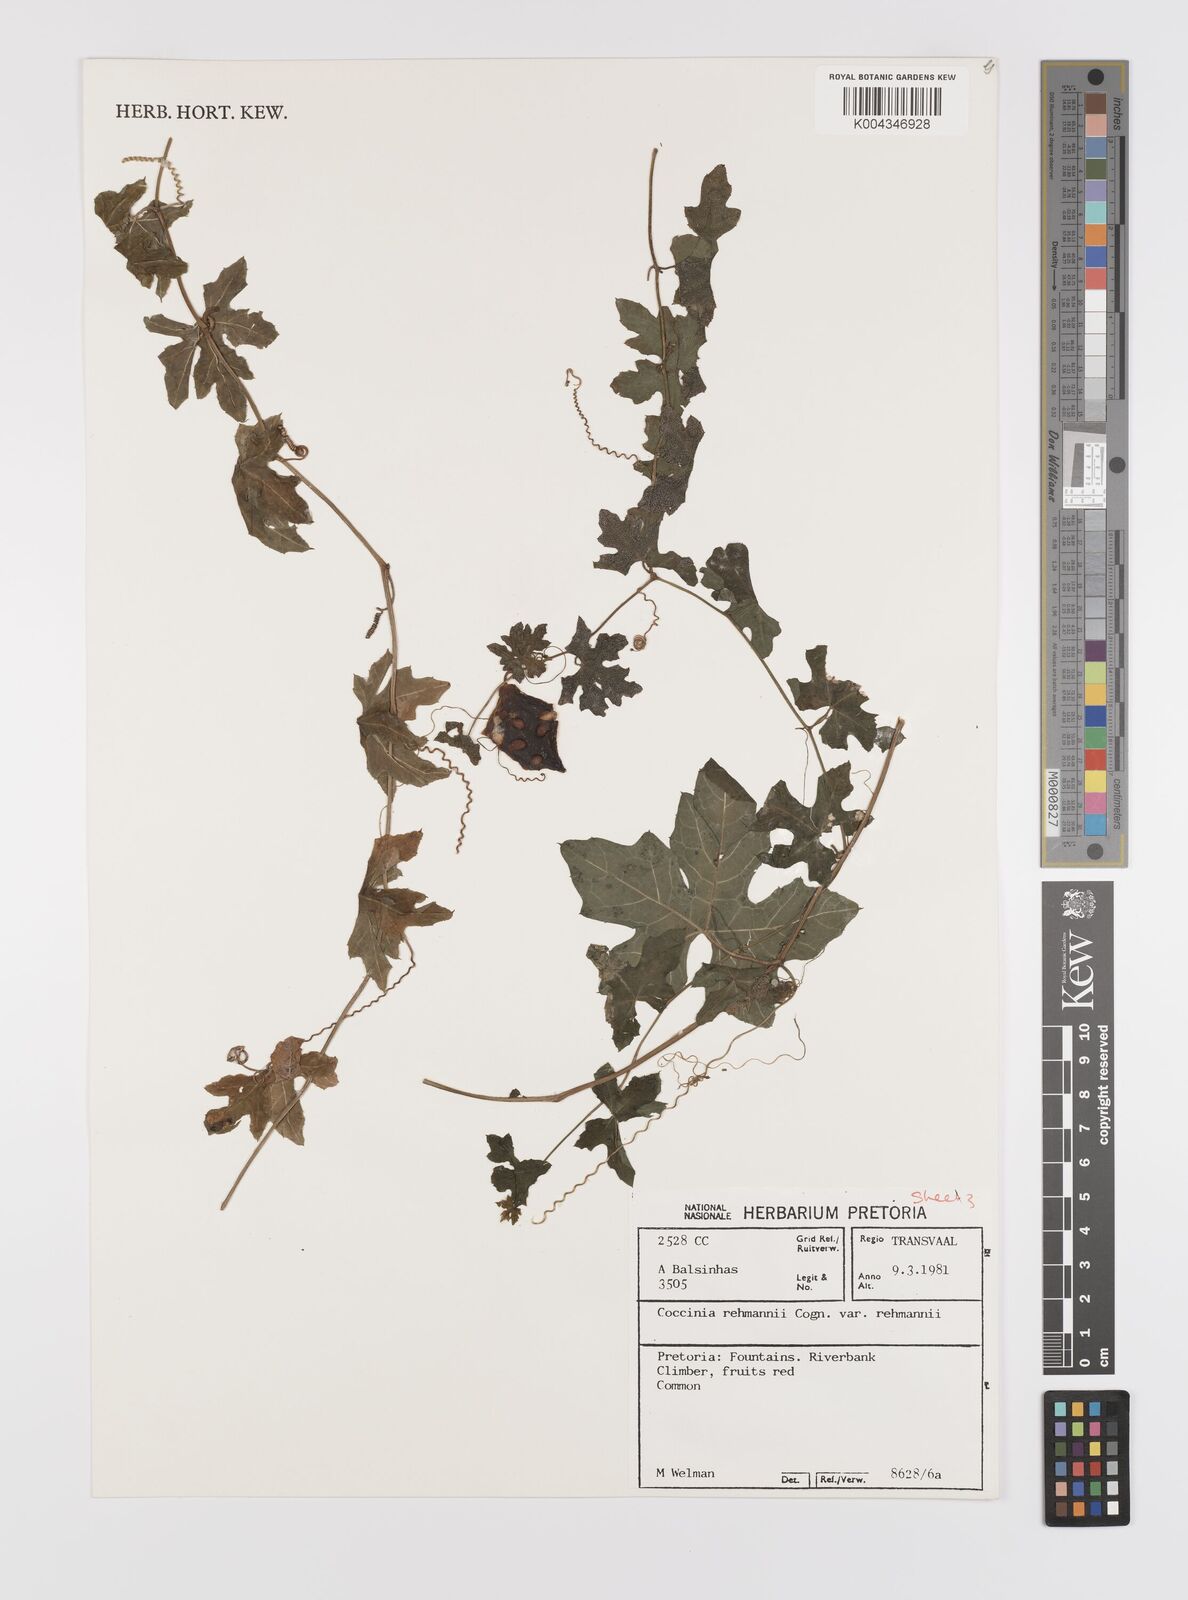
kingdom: Plantae
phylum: Tracheophyta
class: Magnoliopsida
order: Cucurbitales
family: Cucurbitaceae
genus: Coccinia
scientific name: Coccinia rehmannii
